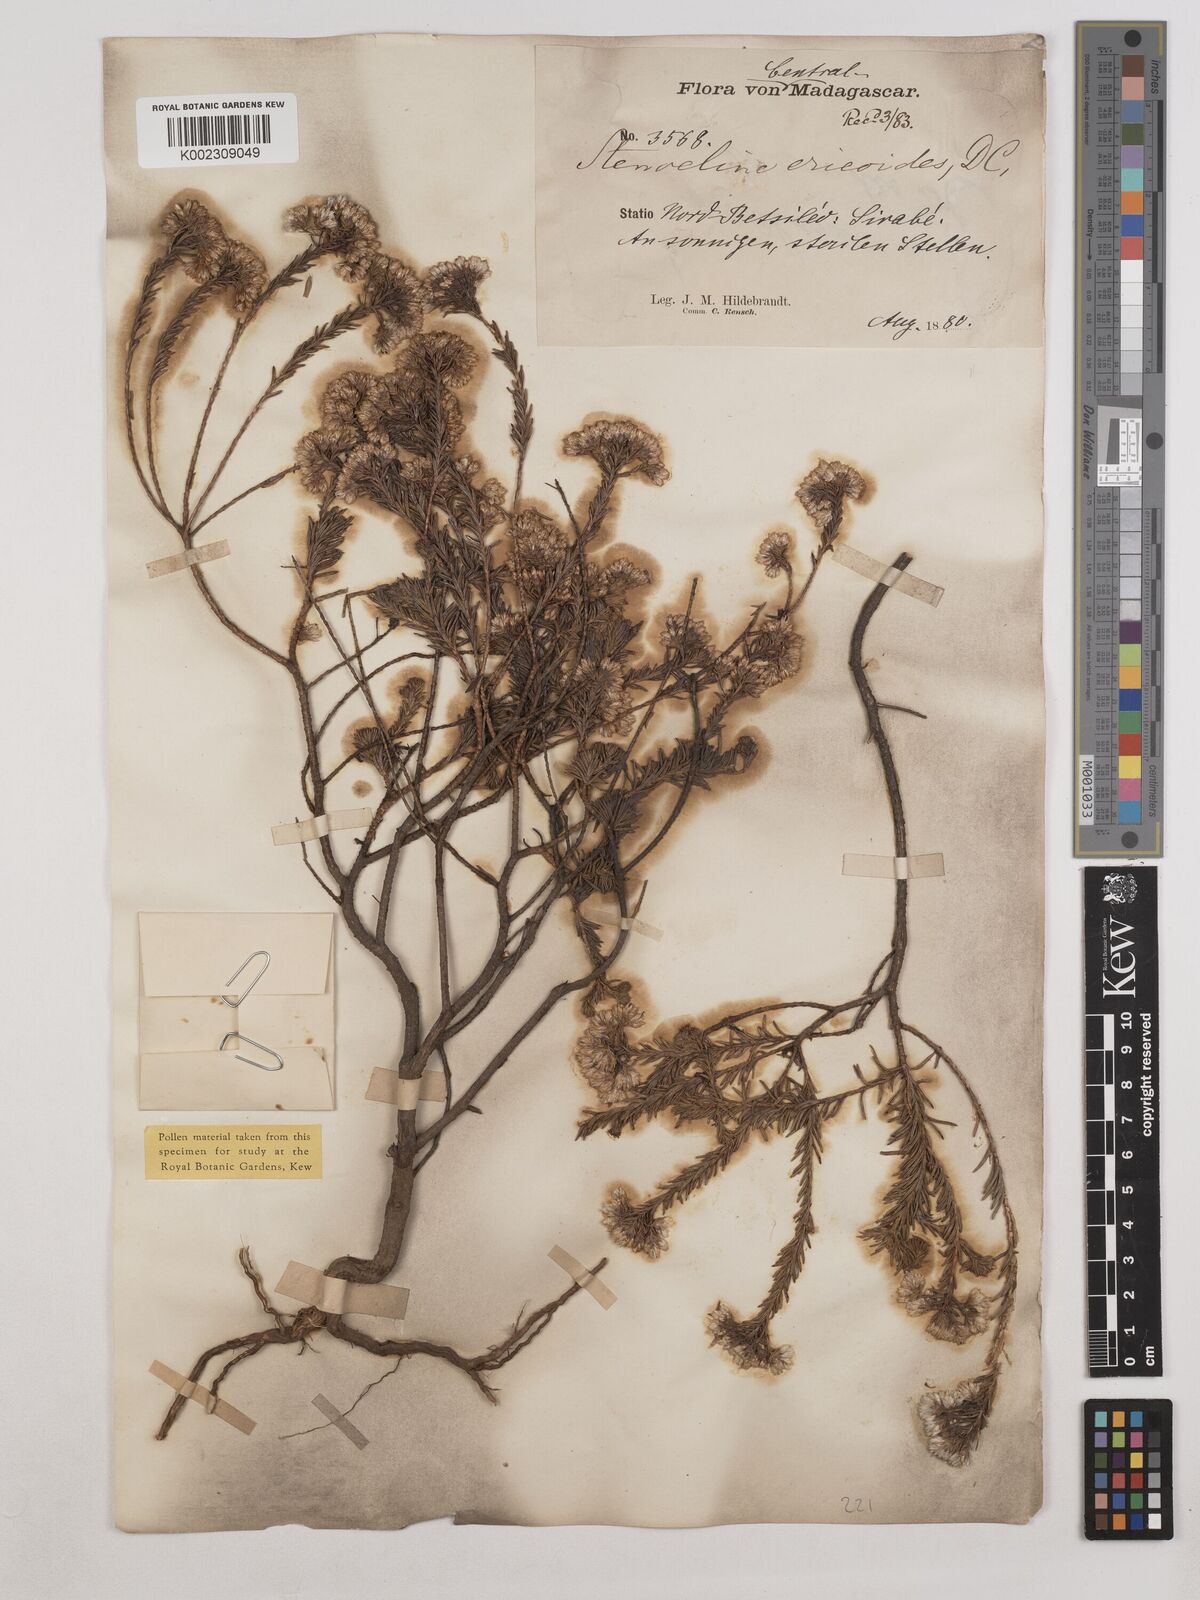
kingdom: Plantae
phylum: Tracheophyta
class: Magnoliopsida
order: Asterales
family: Asteraceae
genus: Stenocline
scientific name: Stenocline ericoides
